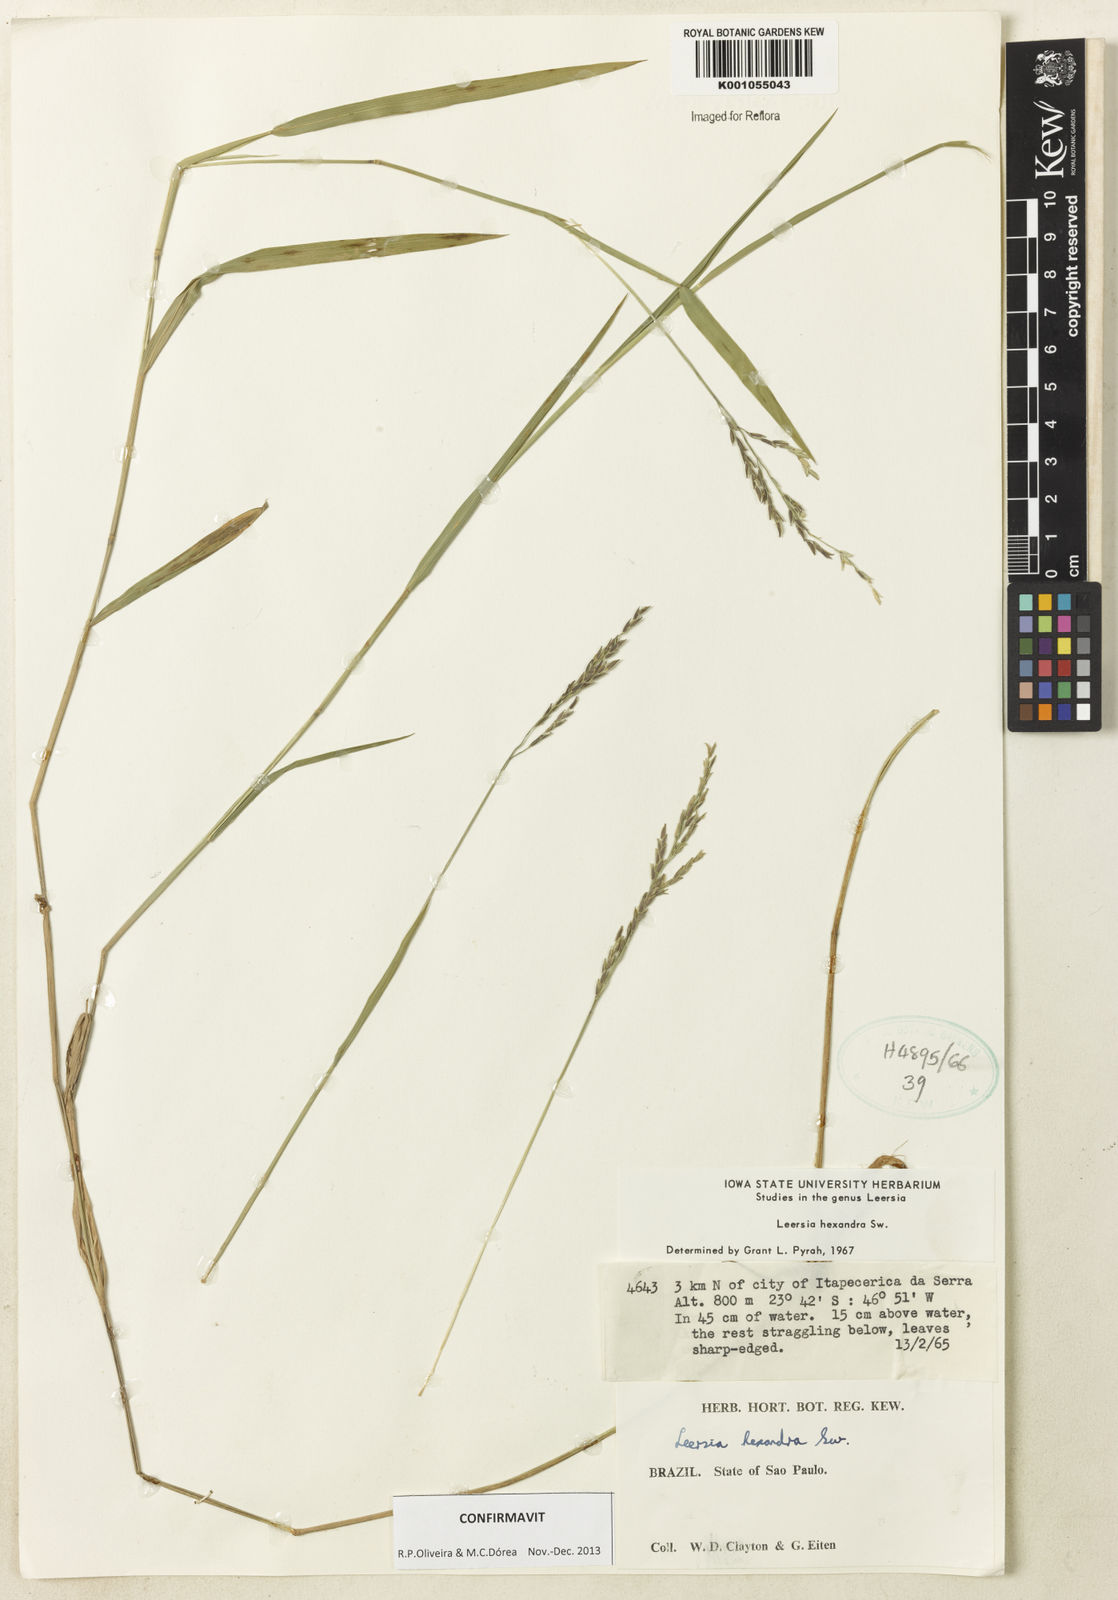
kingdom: Plantae
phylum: Tracheophyta
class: Liliopsida
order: Poales
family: Poaceae
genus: Leersia
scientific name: Leersia hexandra
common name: Southern cut grass
